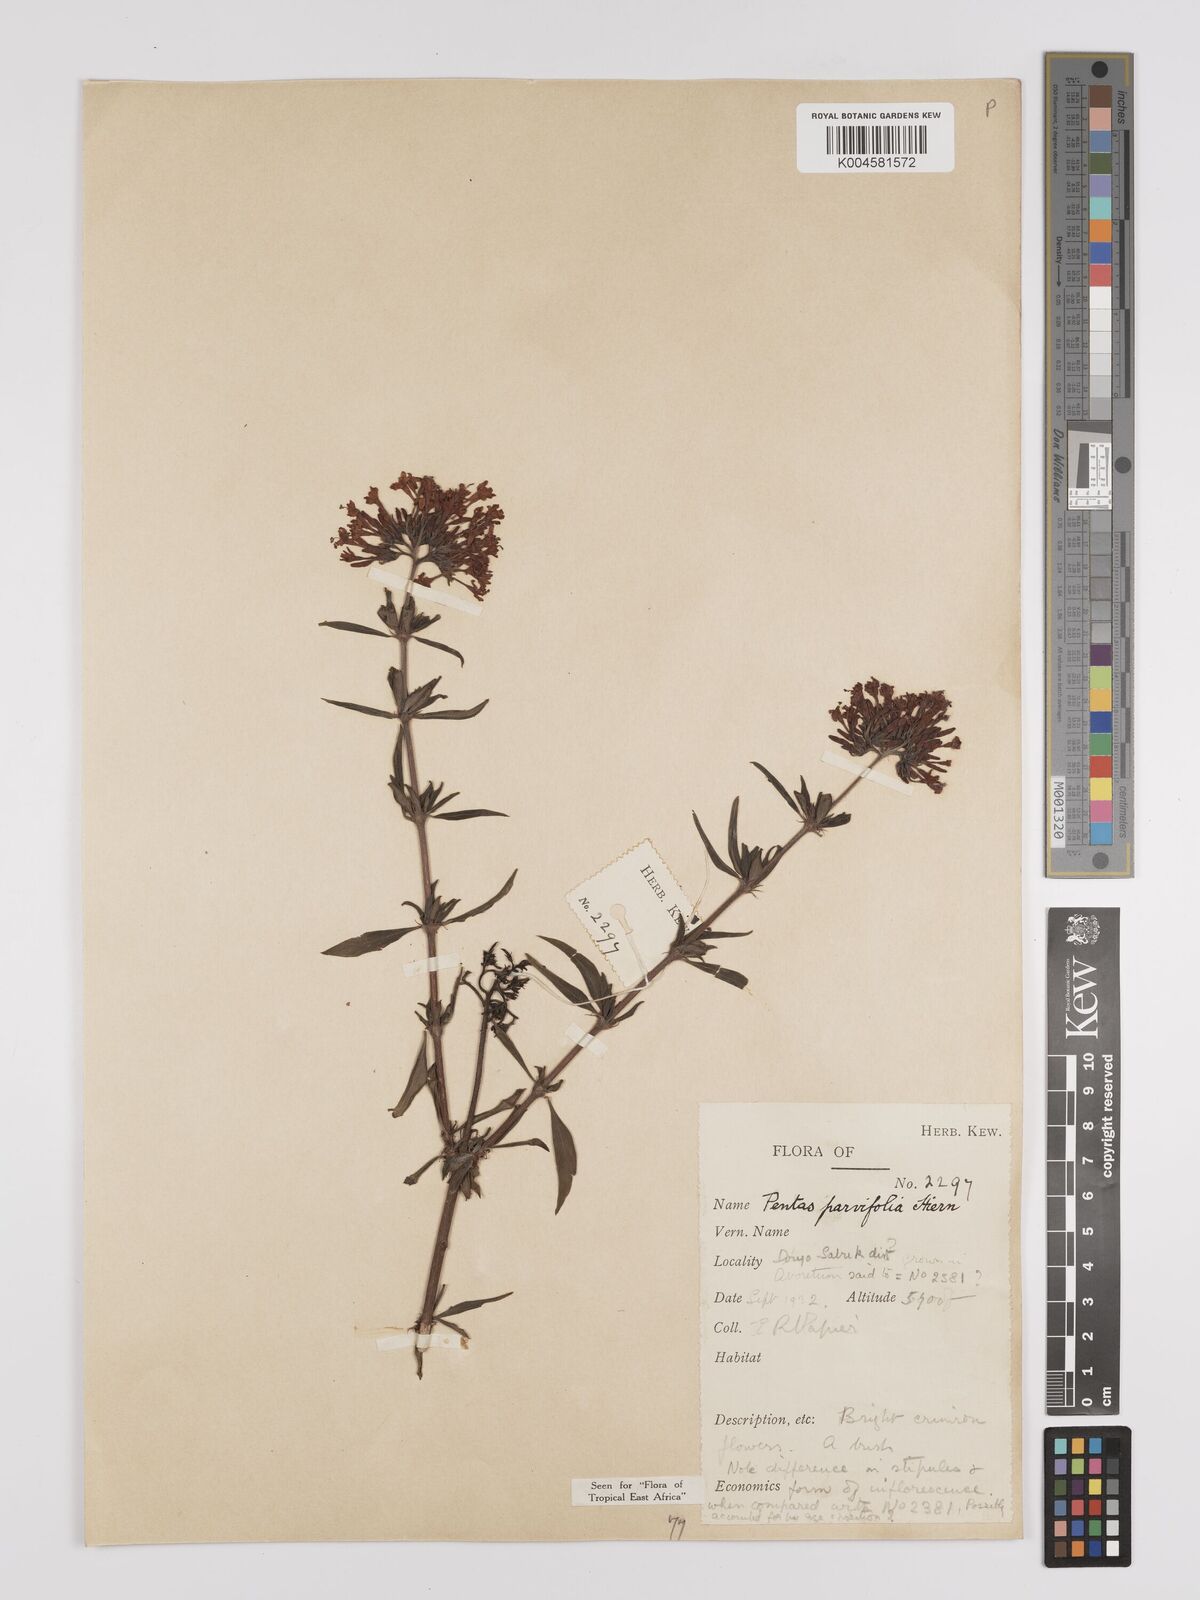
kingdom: Plantae
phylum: Tracheophyta
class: Magnoliopsida
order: Gentianales
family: Rubiaceae
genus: Rhodopentas
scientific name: Rhodopentas parvifolia
